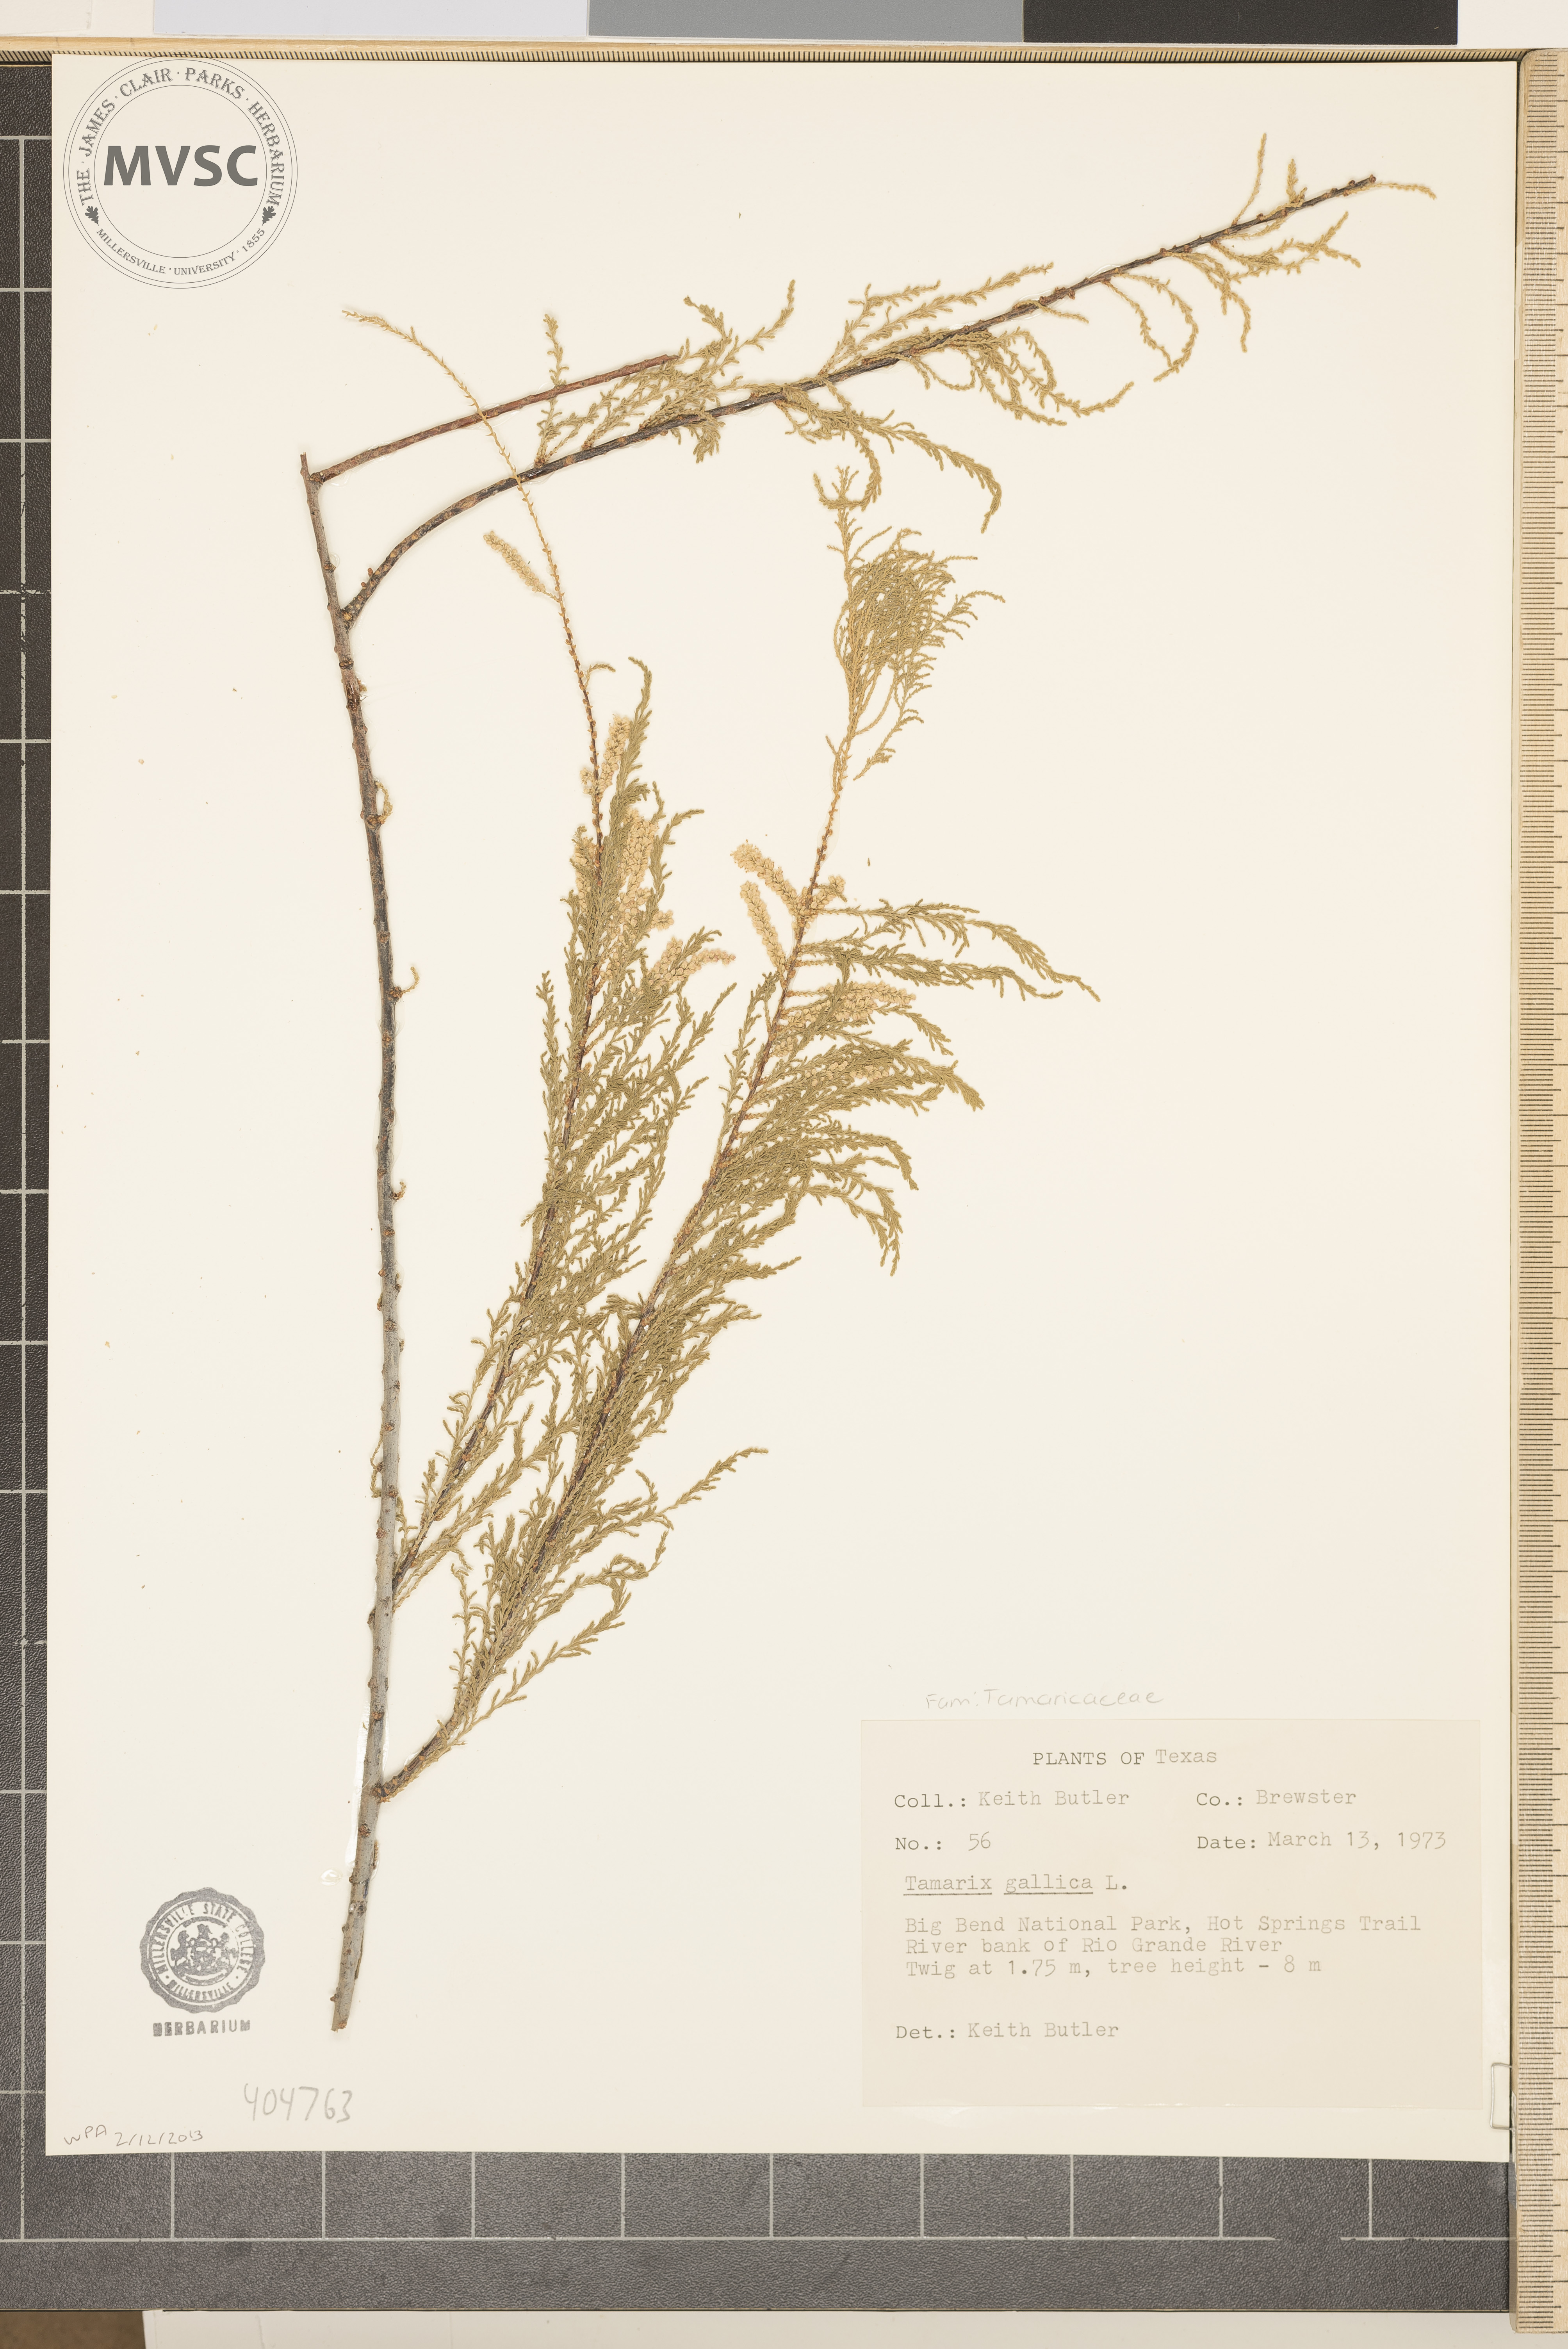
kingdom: Plantae
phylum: Tracheophyta
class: Magnoliopsida
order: Caryophyllales
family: Tamaricaceae
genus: Tamarix
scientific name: Tamarix gallica
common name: Tamarisk
